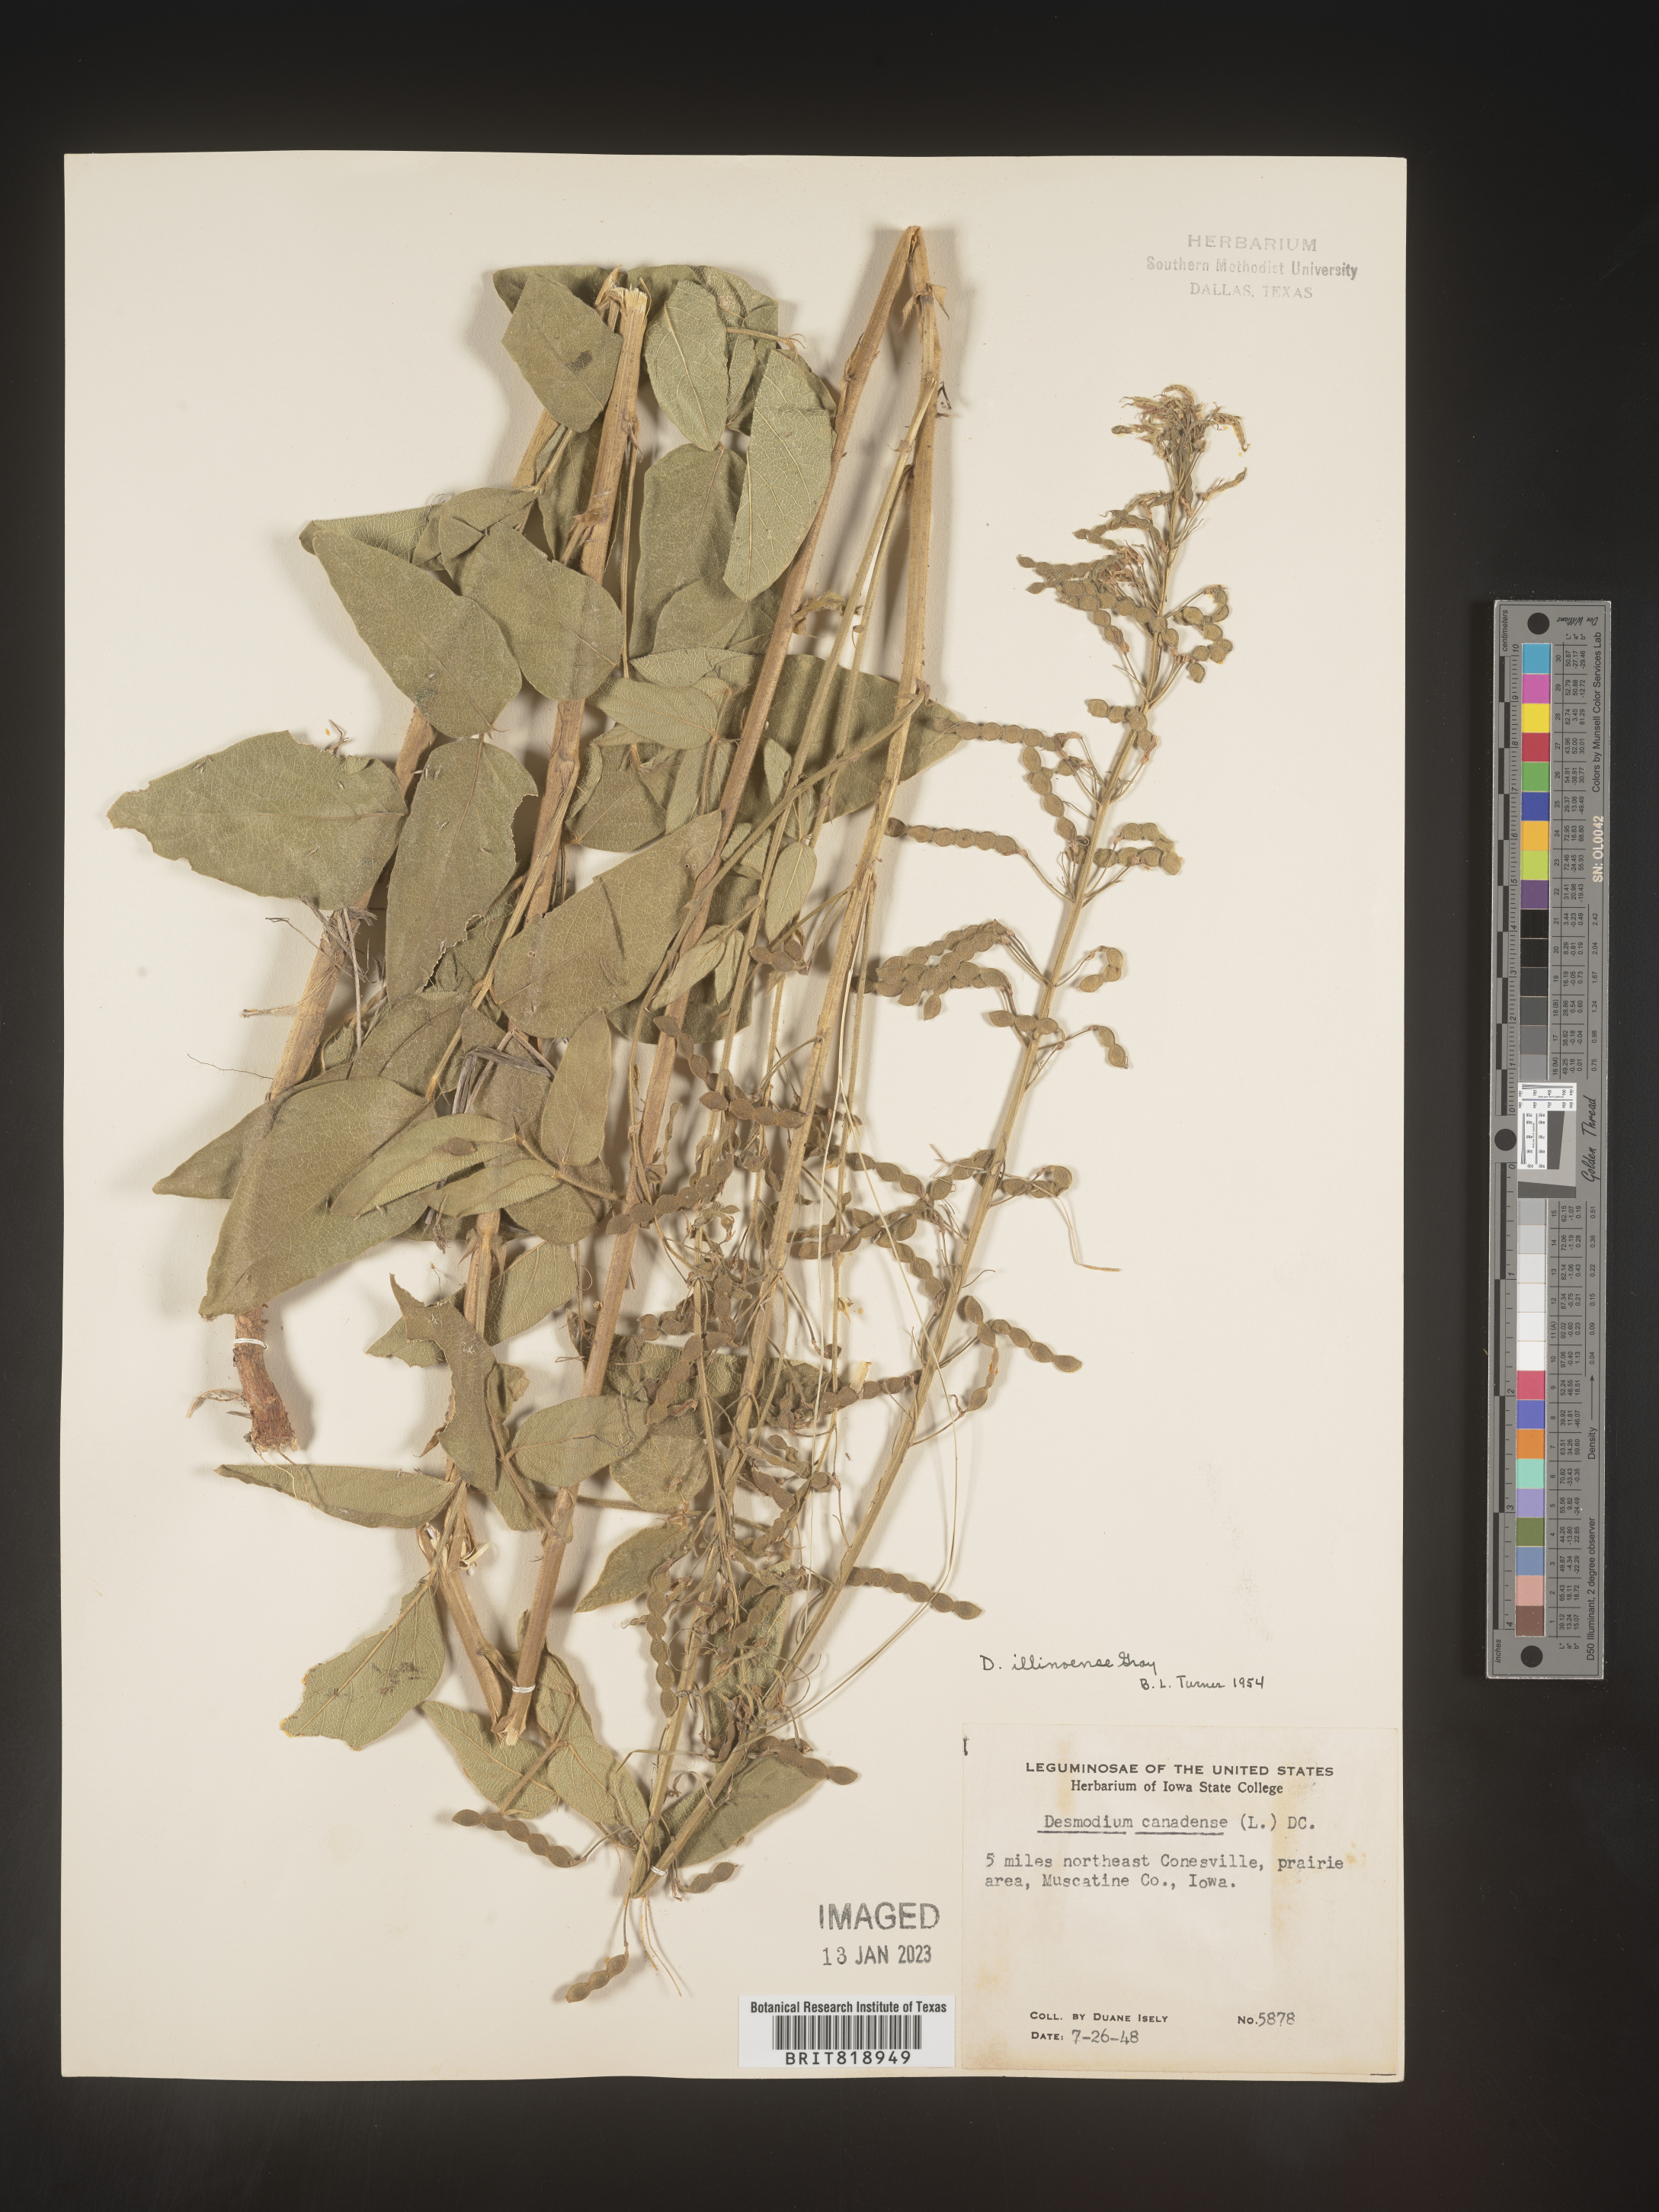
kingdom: Plantae
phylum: Tracheophyta
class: Magnoliopsida
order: Fabales
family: Fabaceae
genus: Desmodium
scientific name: Desmodium illinoense
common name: Illinois tick-clover
